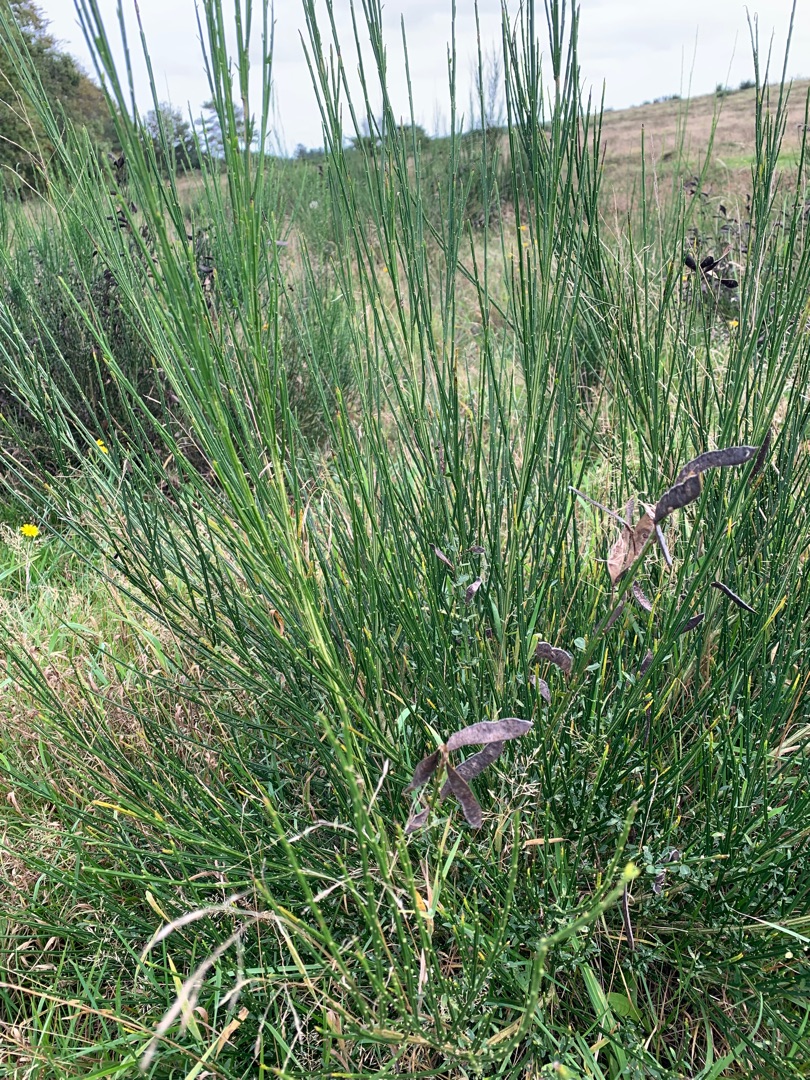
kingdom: Plantae
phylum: Tracheophyta
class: Magnoliopsida
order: Fabales
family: Fabaceae
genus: Cytisus
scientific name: Cytisus scoparius
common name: Almindelig gyvel
